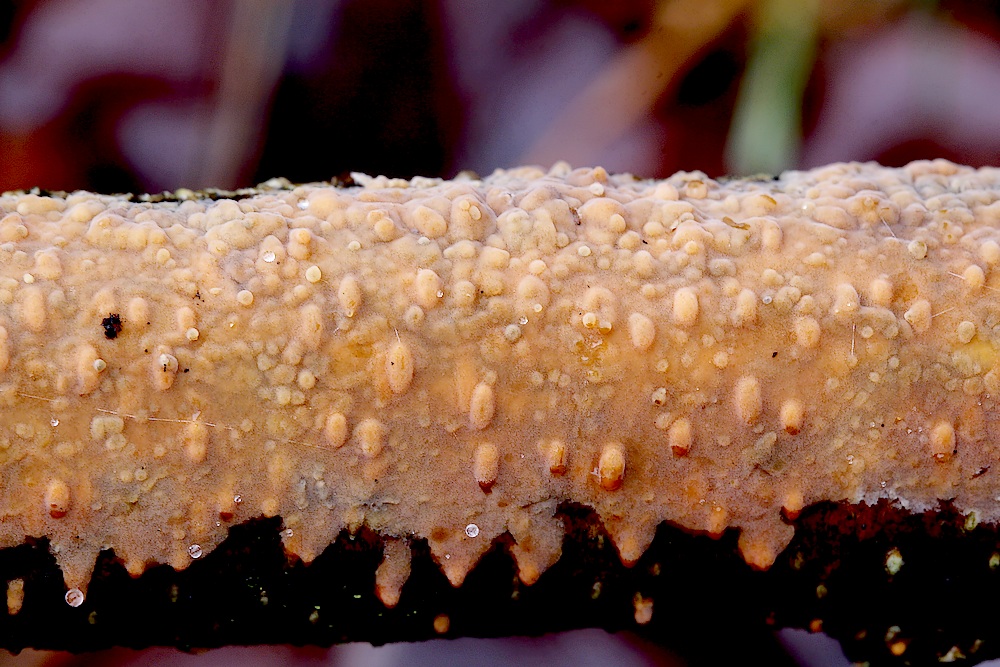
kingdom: Fungi
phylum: Basidiomycota
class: Agaricomycetes
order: Russulales
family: Peniophoraceae
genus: Peniophora
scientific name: Peniophora
